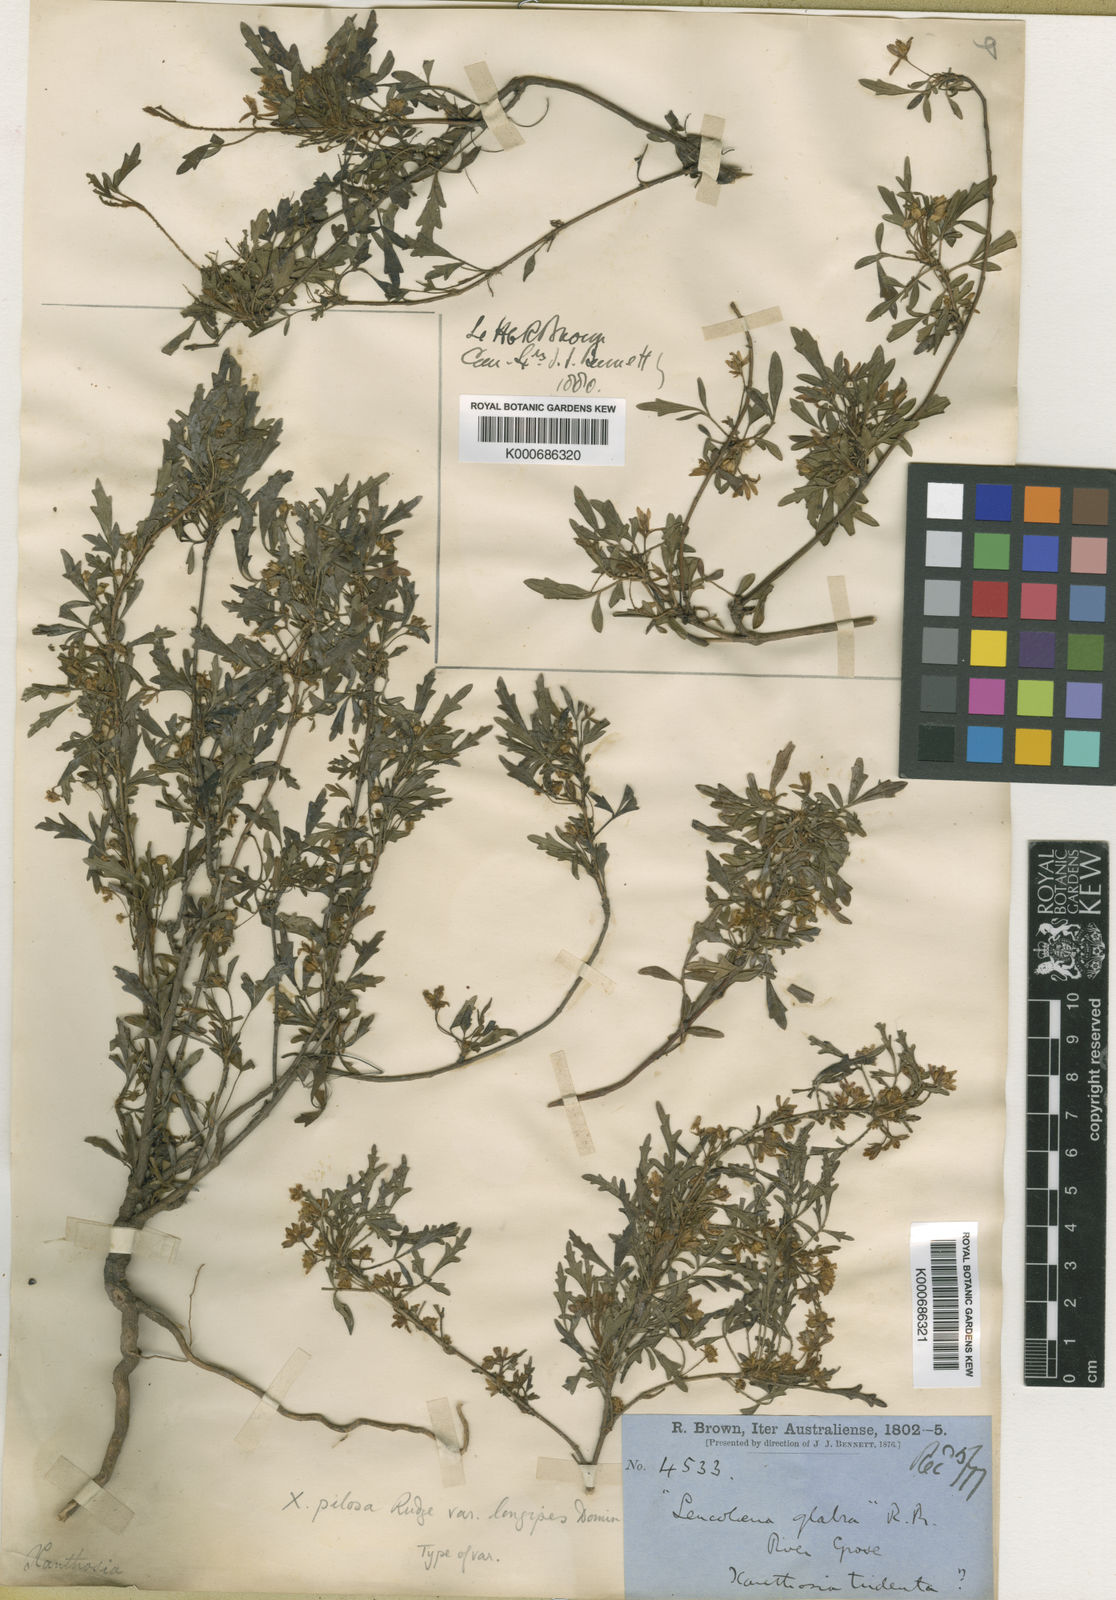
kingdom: Plantae
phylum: Tracheophyta
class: Magnoliopsida
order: Apiales
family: Apiaceae
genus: Xanthosia
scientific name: Xanthosia pilosa
